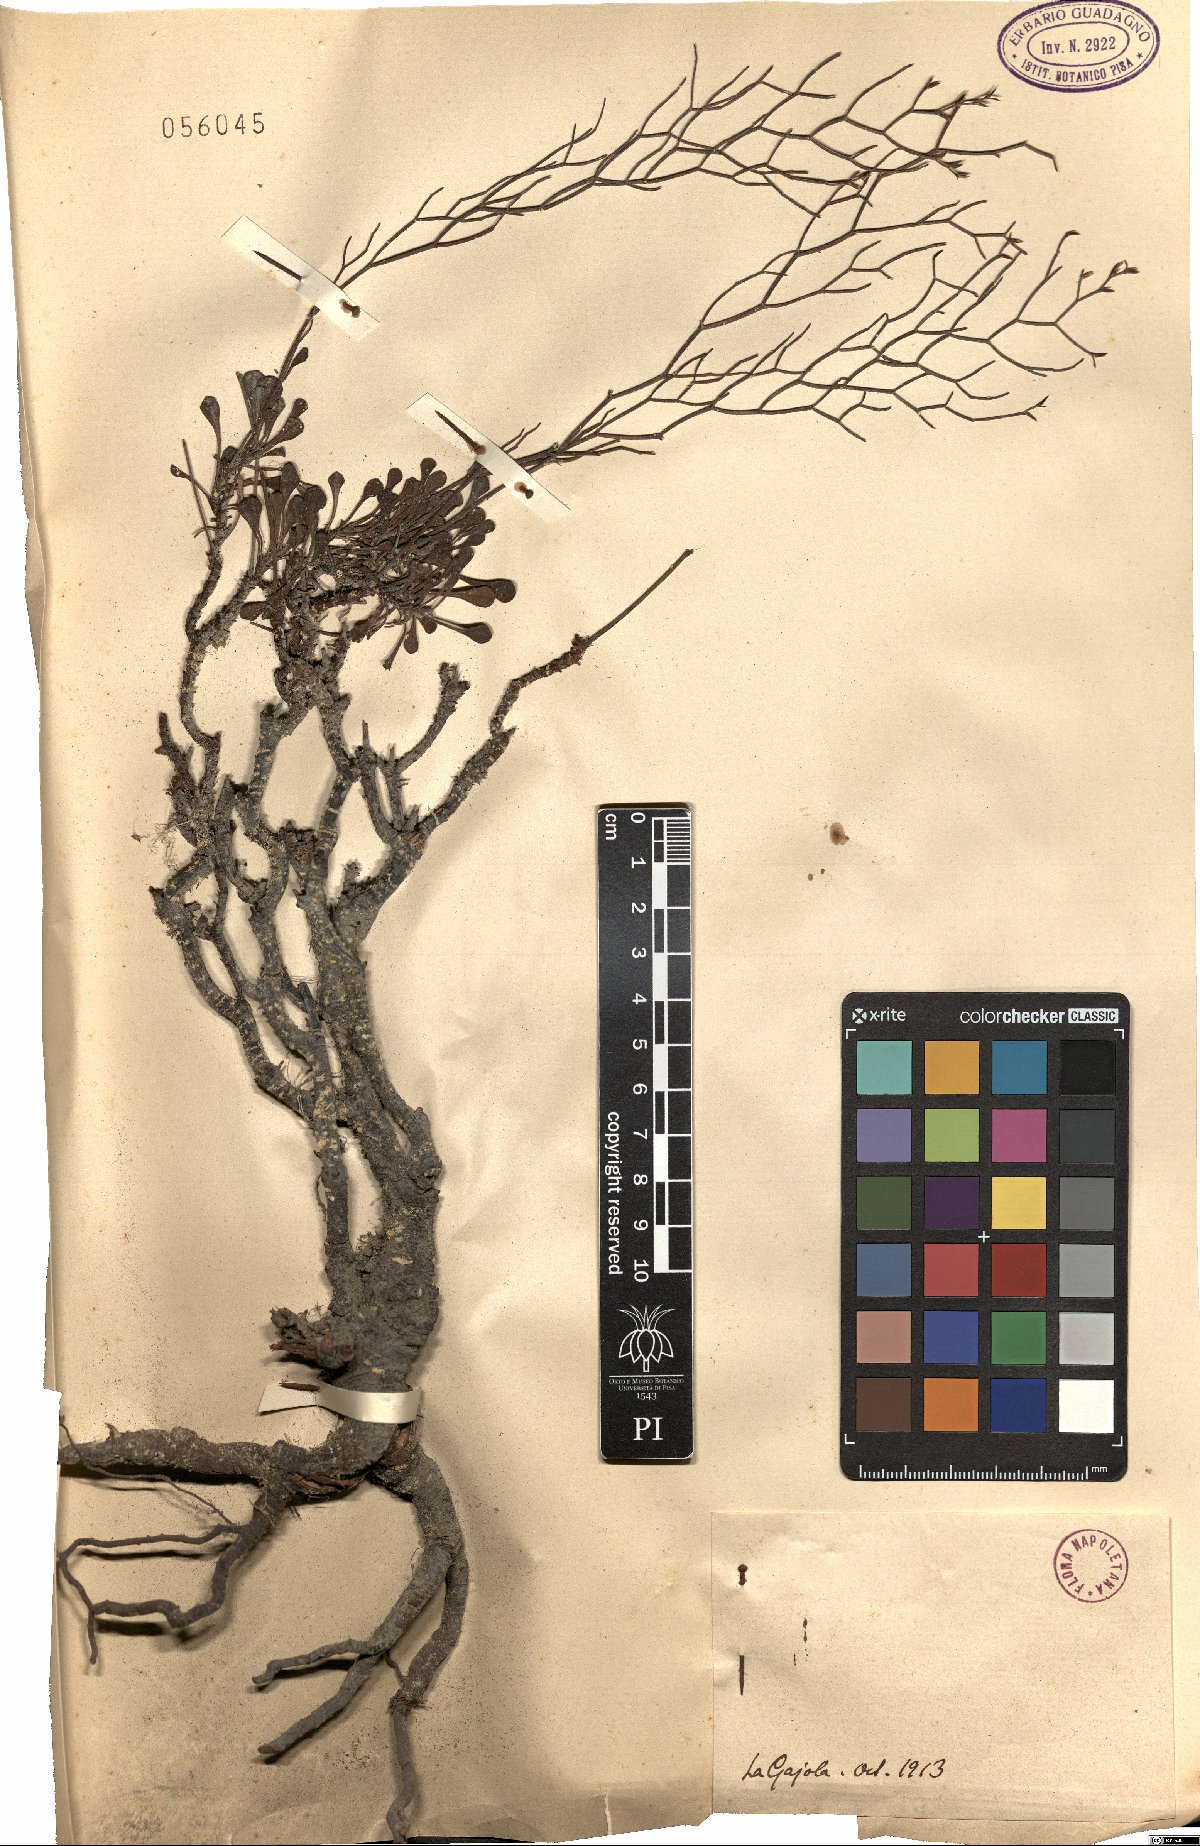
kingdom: Plantae
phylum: Tracheophyta
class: Magnoliopsida
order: Caryophyllales
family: Plumbaginaceae
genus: Armeria
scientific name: Armeria
